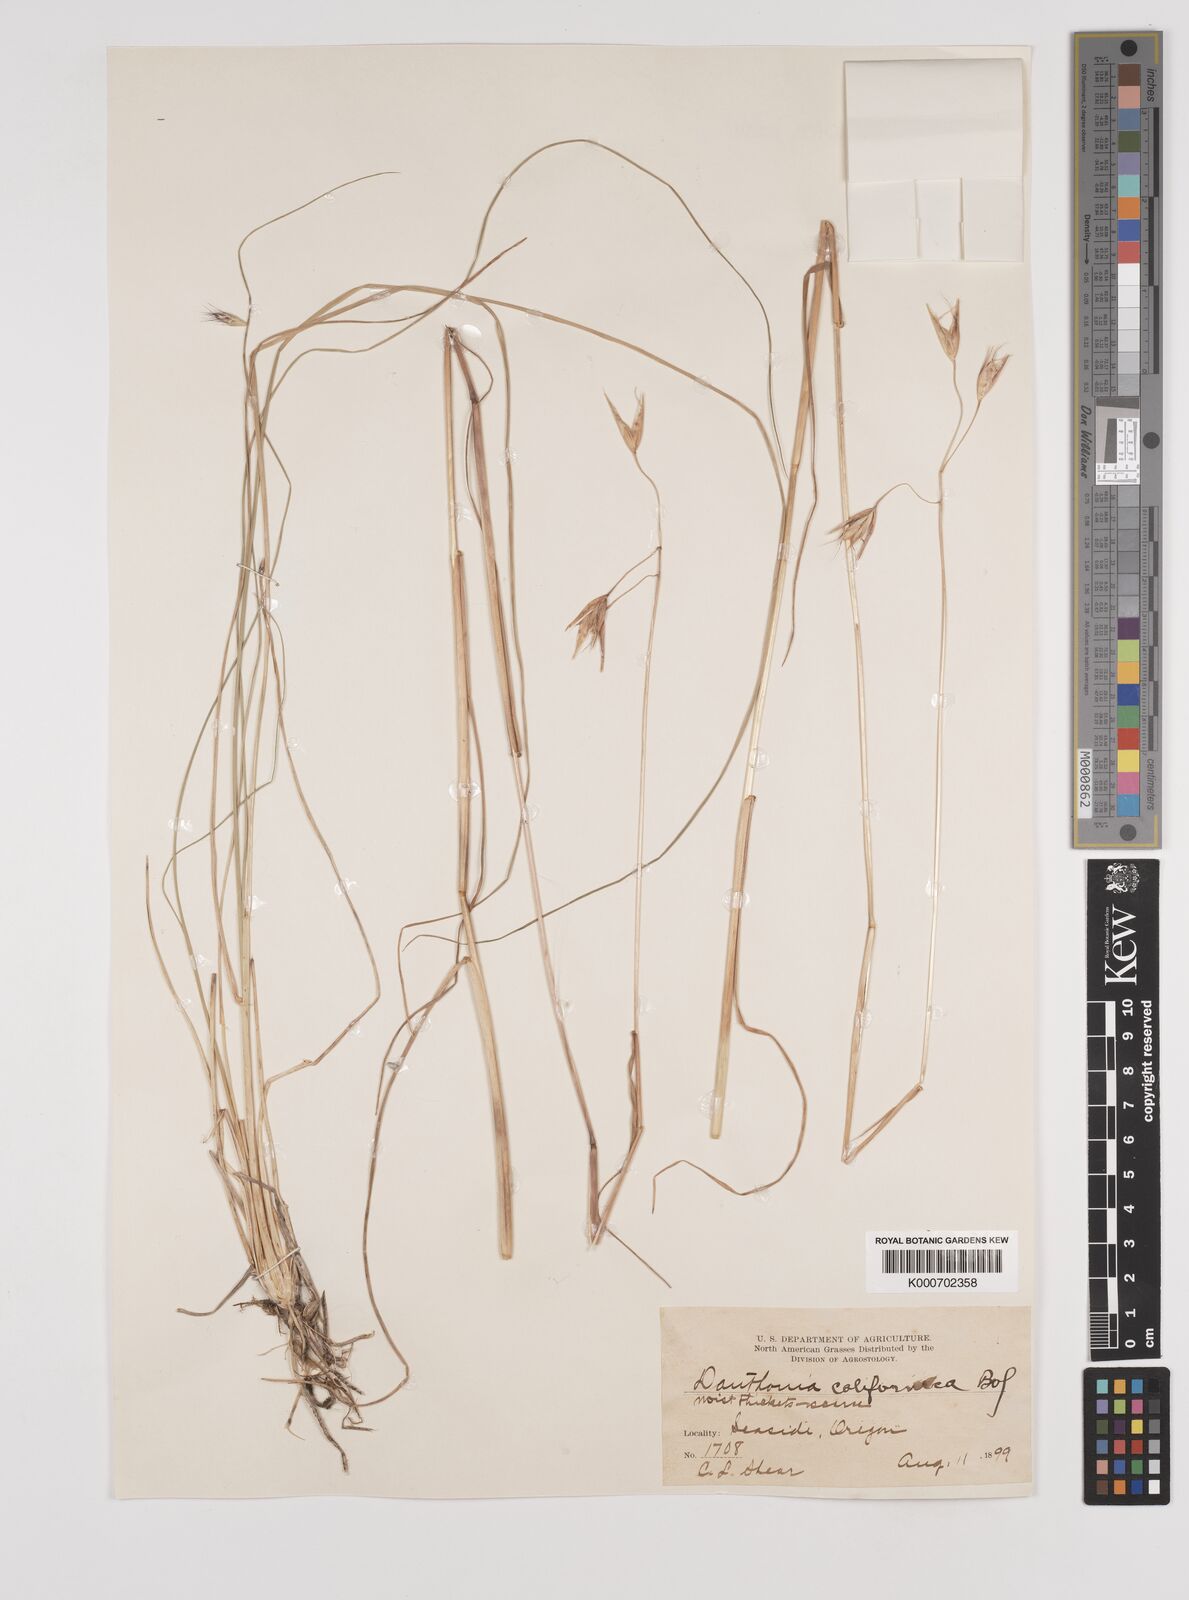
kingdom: Plantae
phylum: Tracheophyta
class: Liliopsida
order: Poales
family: Poaceae
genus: Danthonia
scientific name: Danthonia californica
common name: California oat grass
